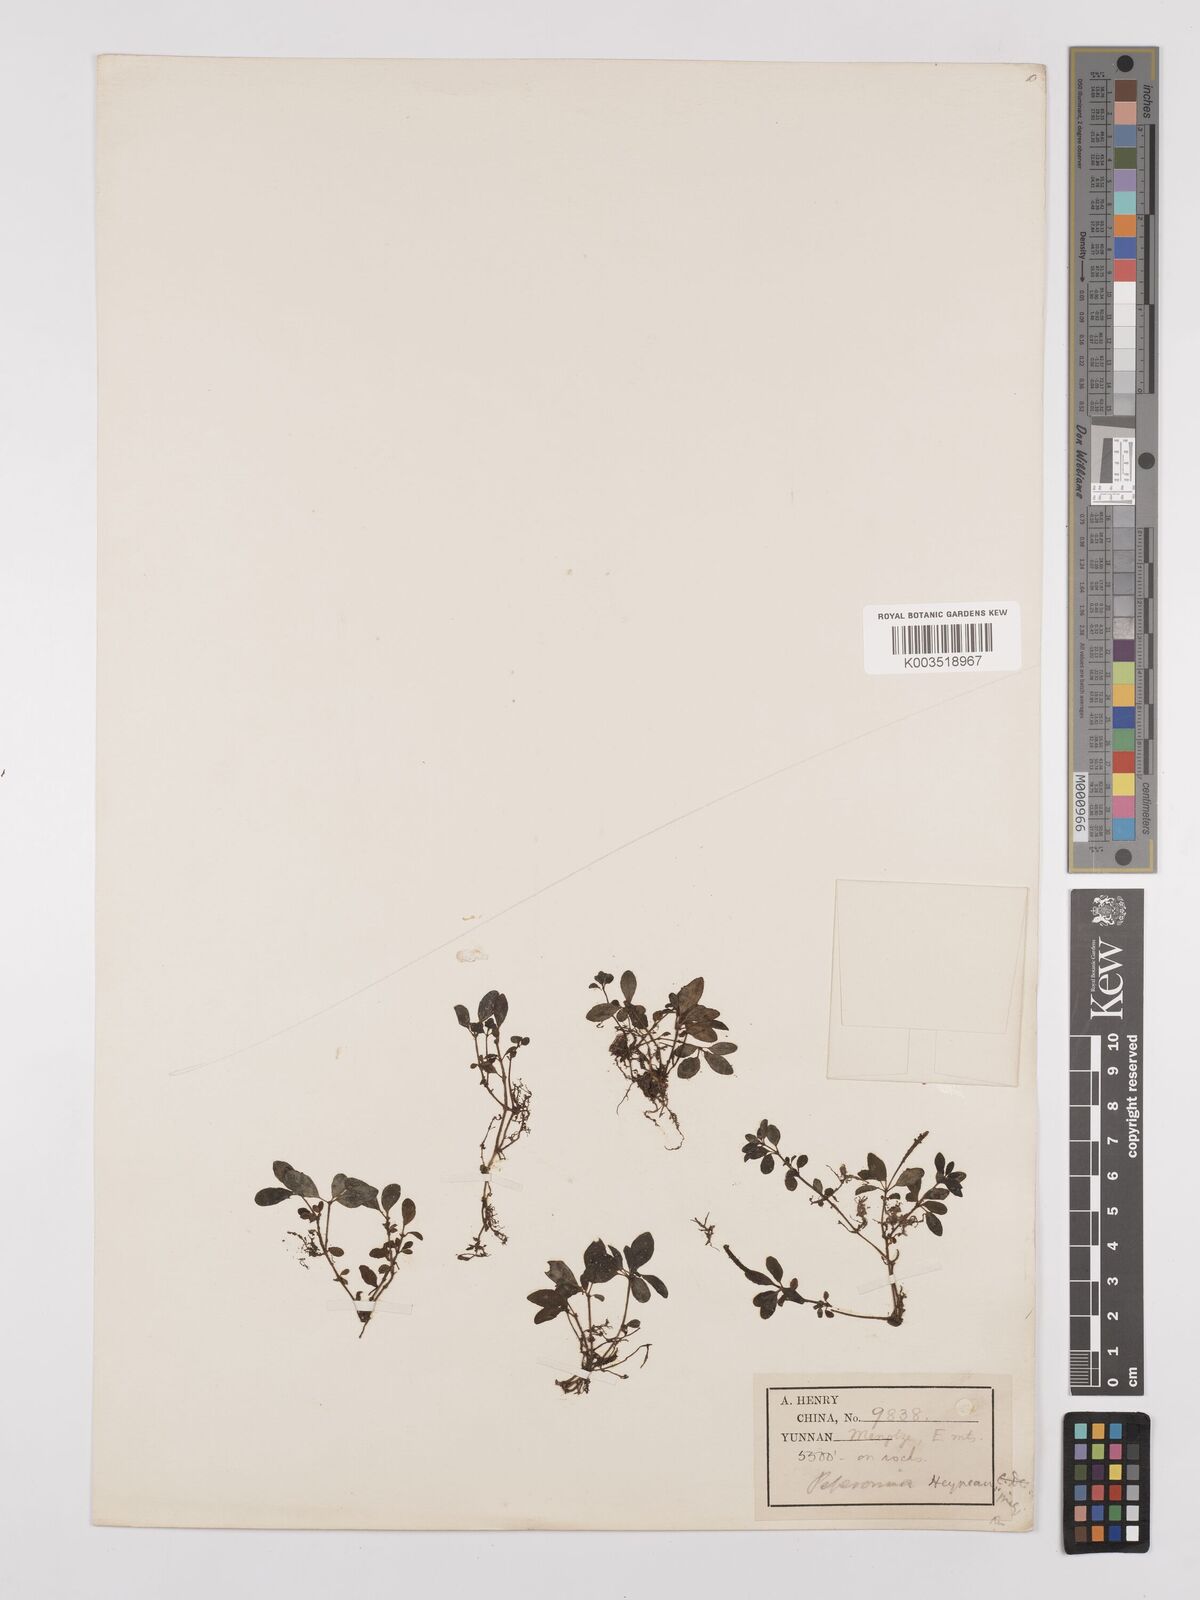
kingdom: Plantae
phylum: Tracheophyta
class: Magnoliopsida
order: Piperales
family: Piperaceae
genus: Peperomia
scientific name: Peperomia heyneana
